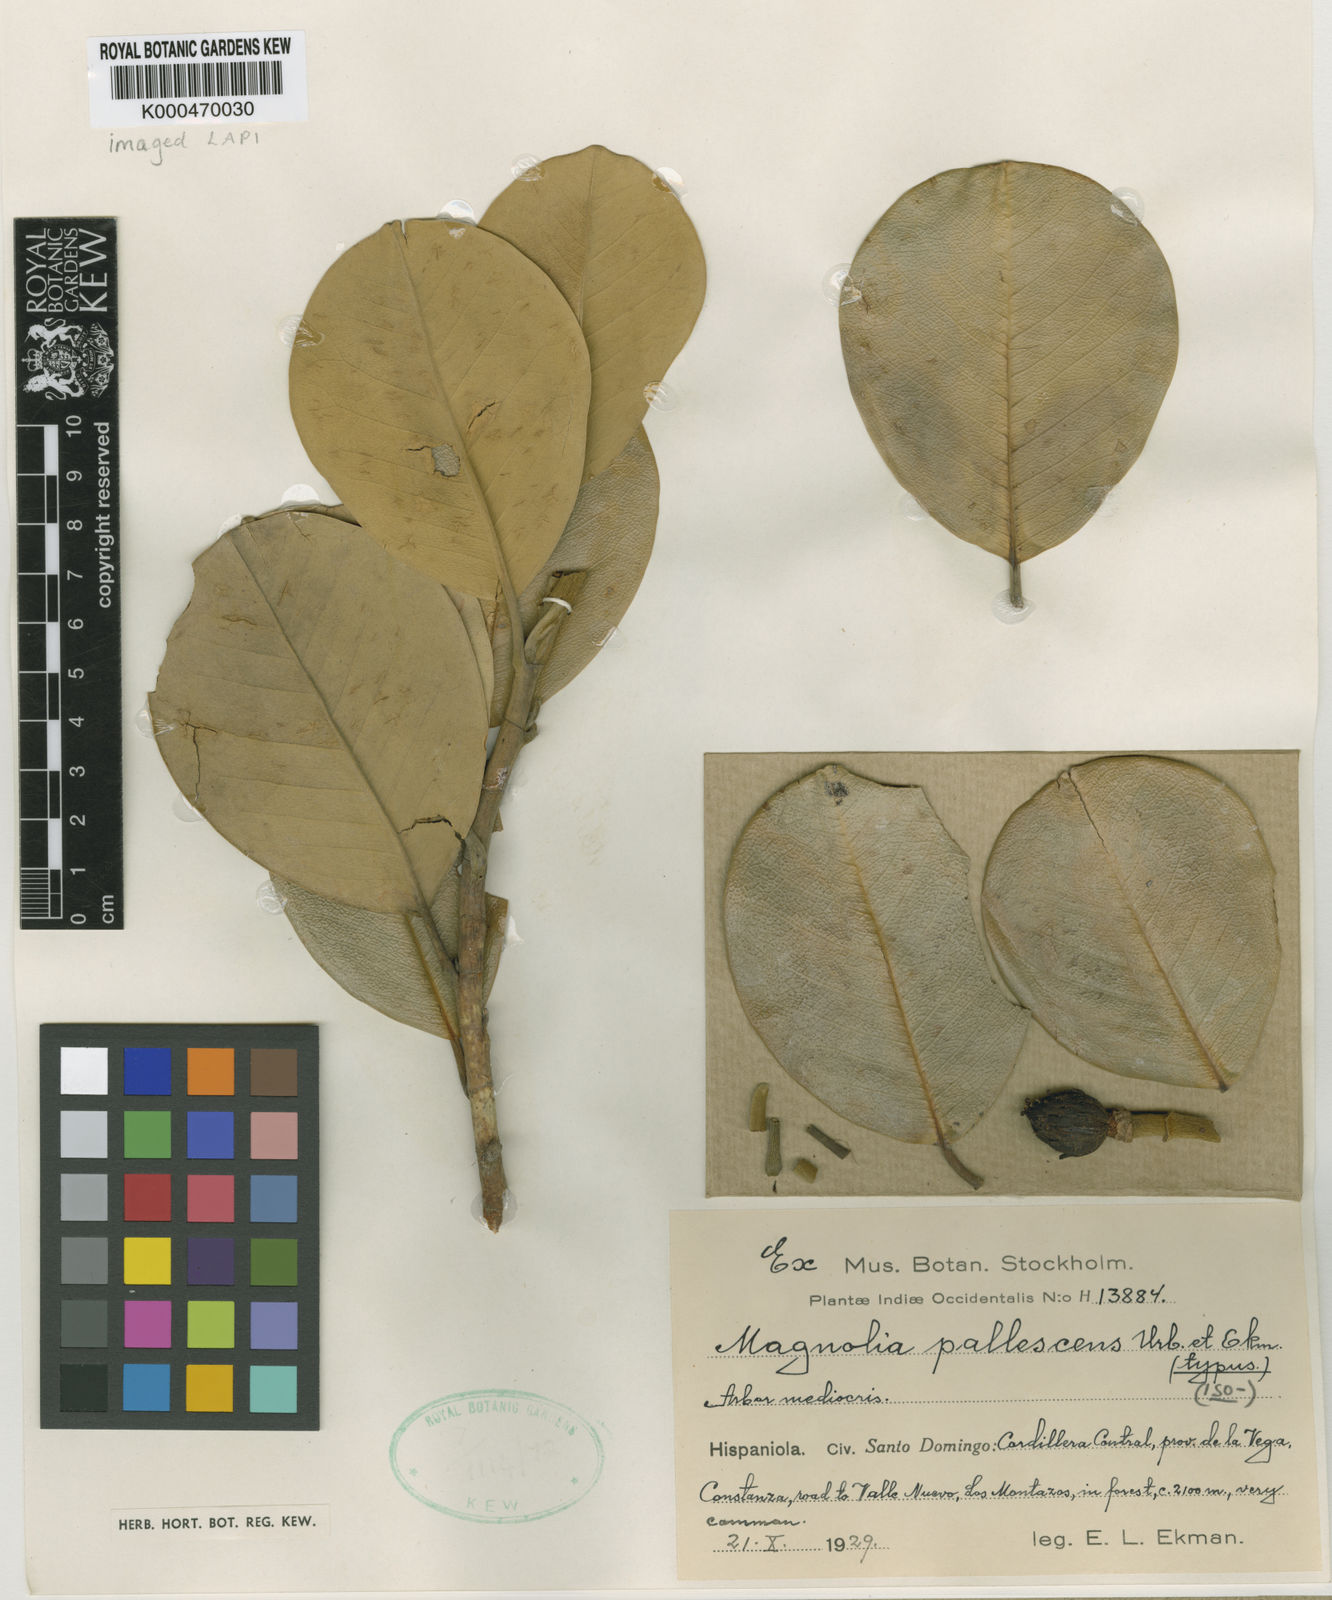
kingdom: Plantae
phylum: Tracheophyta
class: Magnoliopsida
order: Magnoliales
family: Magnoliaceae
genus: Magnolia
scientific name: Magnolia pallescens
